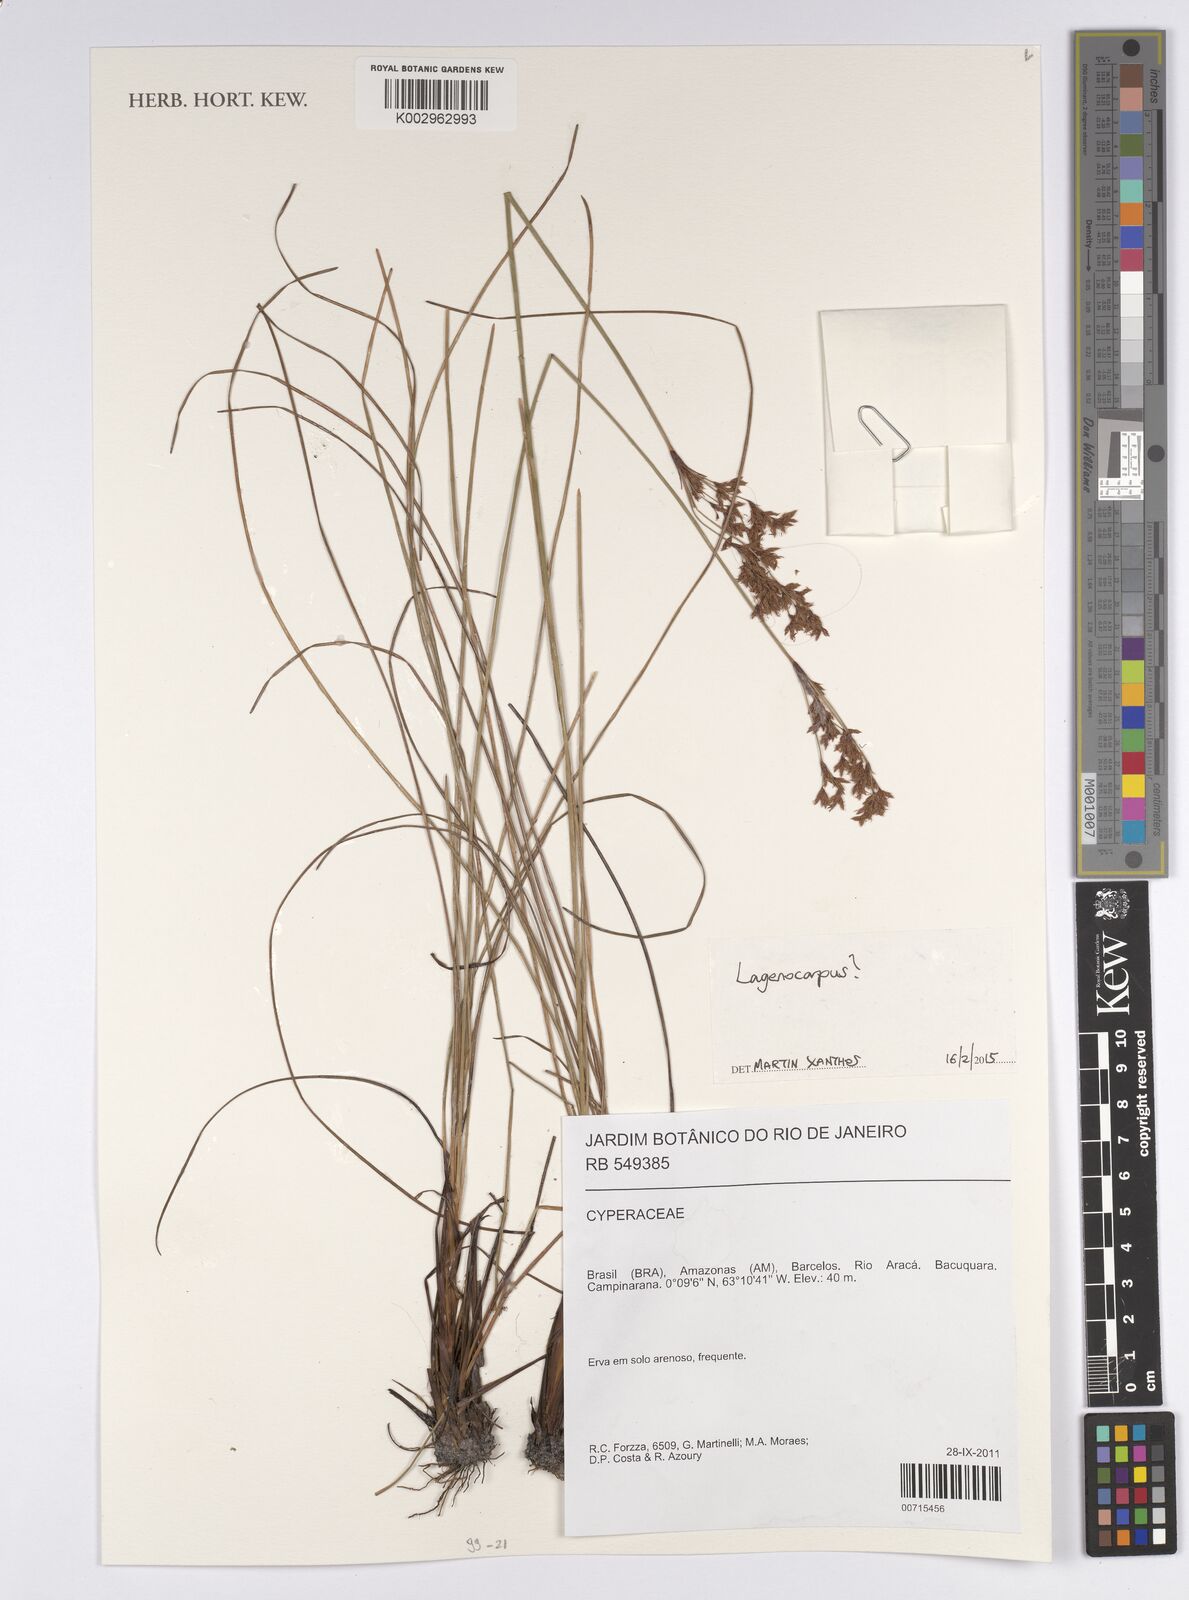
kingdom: Plantae
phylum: Tracheophyta
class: Liliopsida
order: Poales
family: Cyperaceae
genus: Lagenocarpus
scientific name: Lagenocarpus
